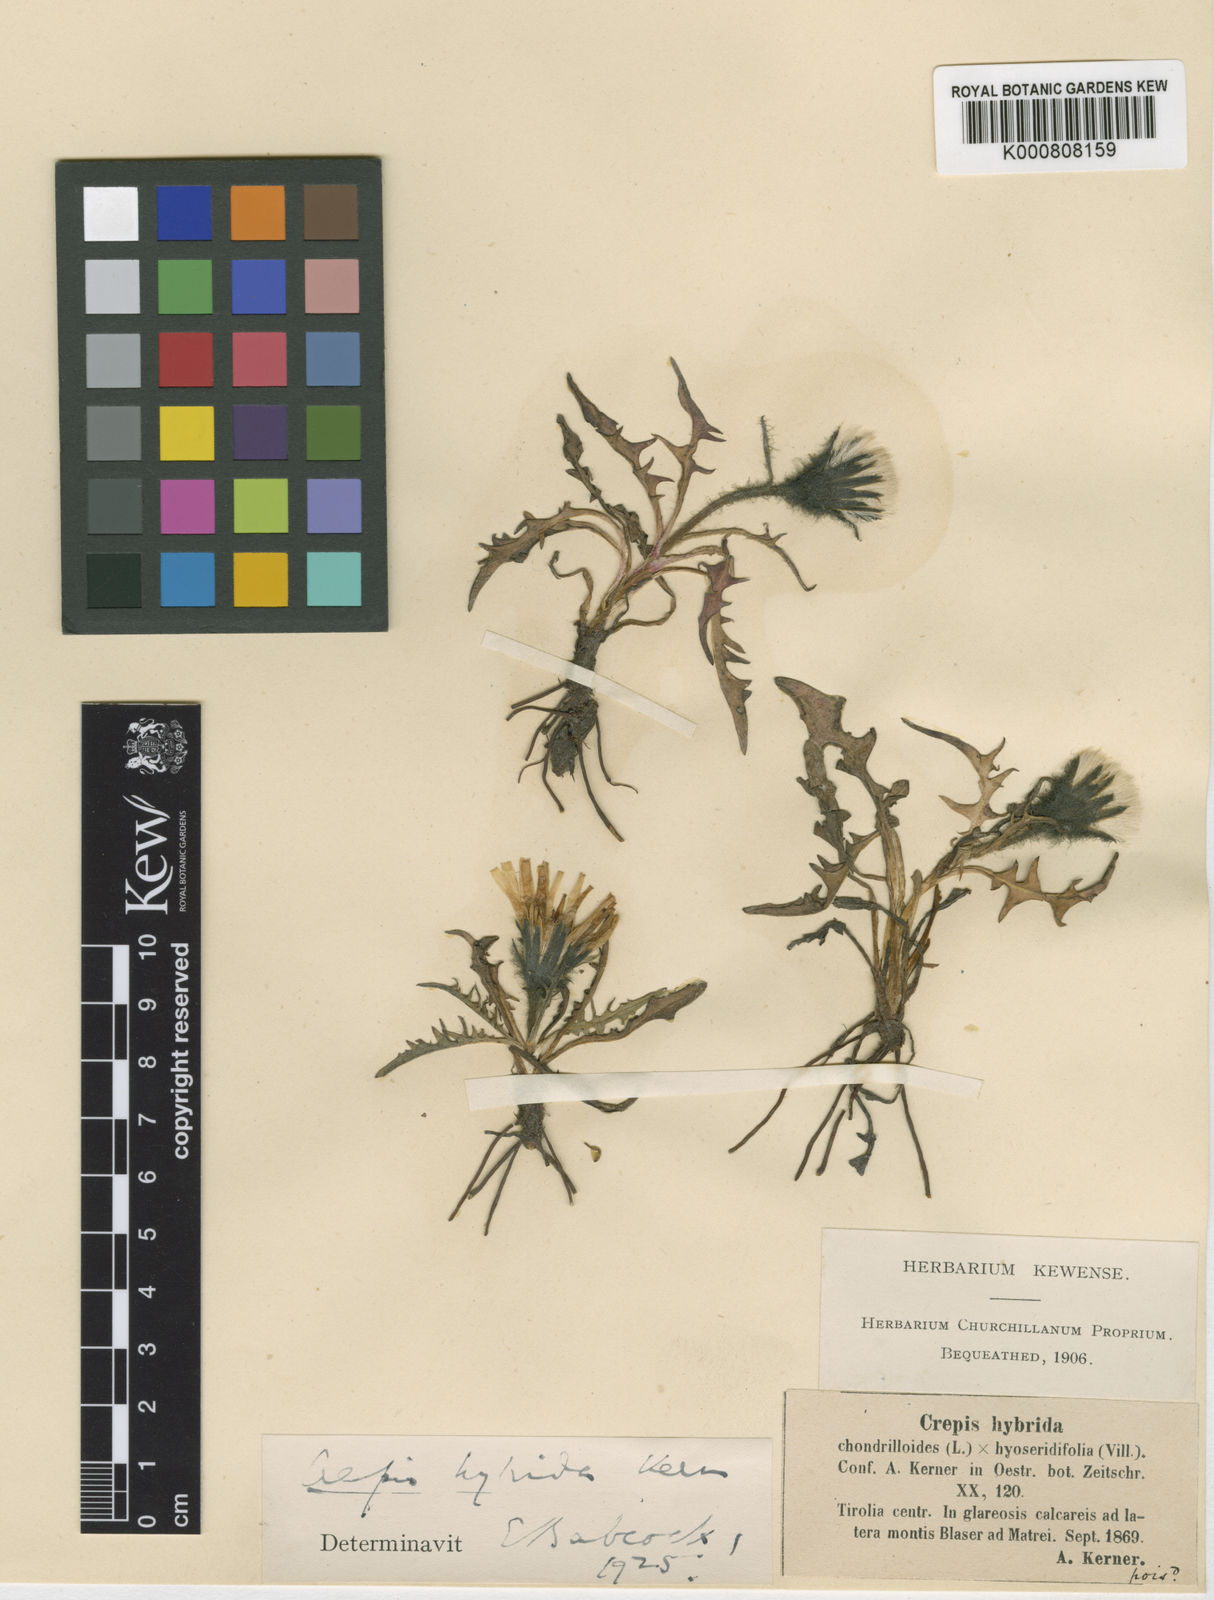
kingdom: Plantae
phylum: Tracheophyta
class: Magnoliopsida
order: Asterales
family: Asteraceae
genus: Crepis
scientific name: Crepis hybrida
